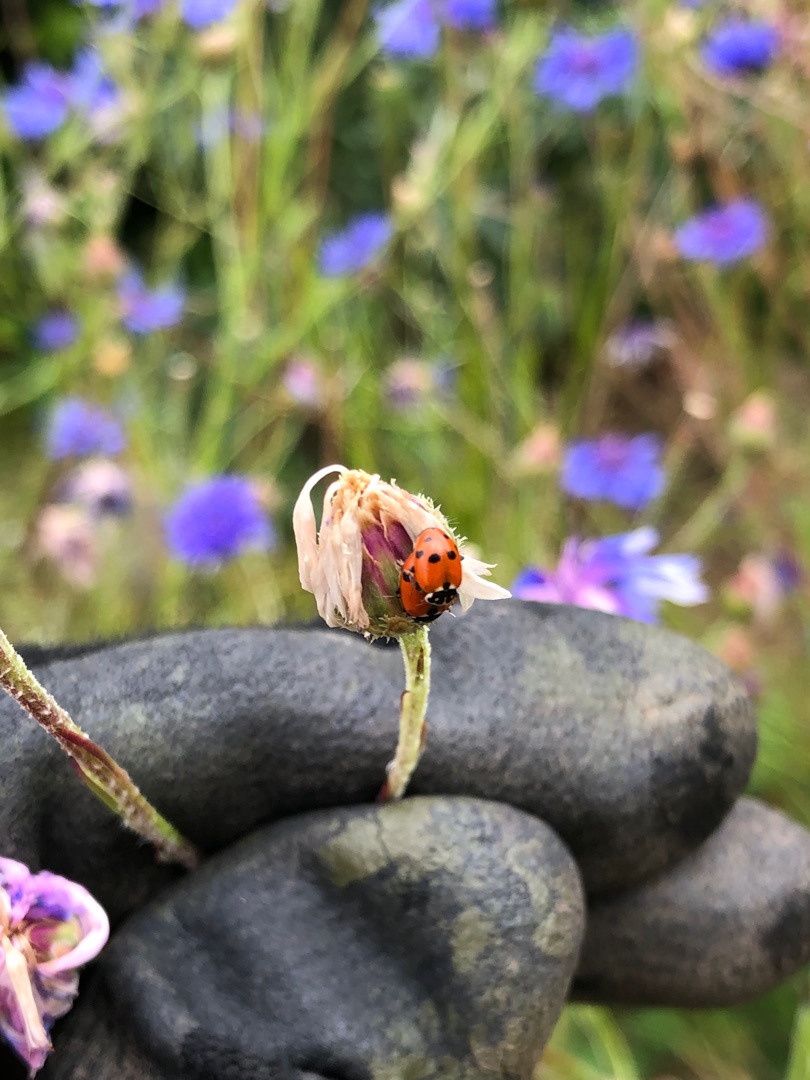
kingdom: Animalia
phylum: Arthropoda
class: Insecta
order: Coleoptera
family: Coccinellidae
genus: Hippodamia
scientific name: Hippodamia variegata
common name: Adonis' mariehøne
